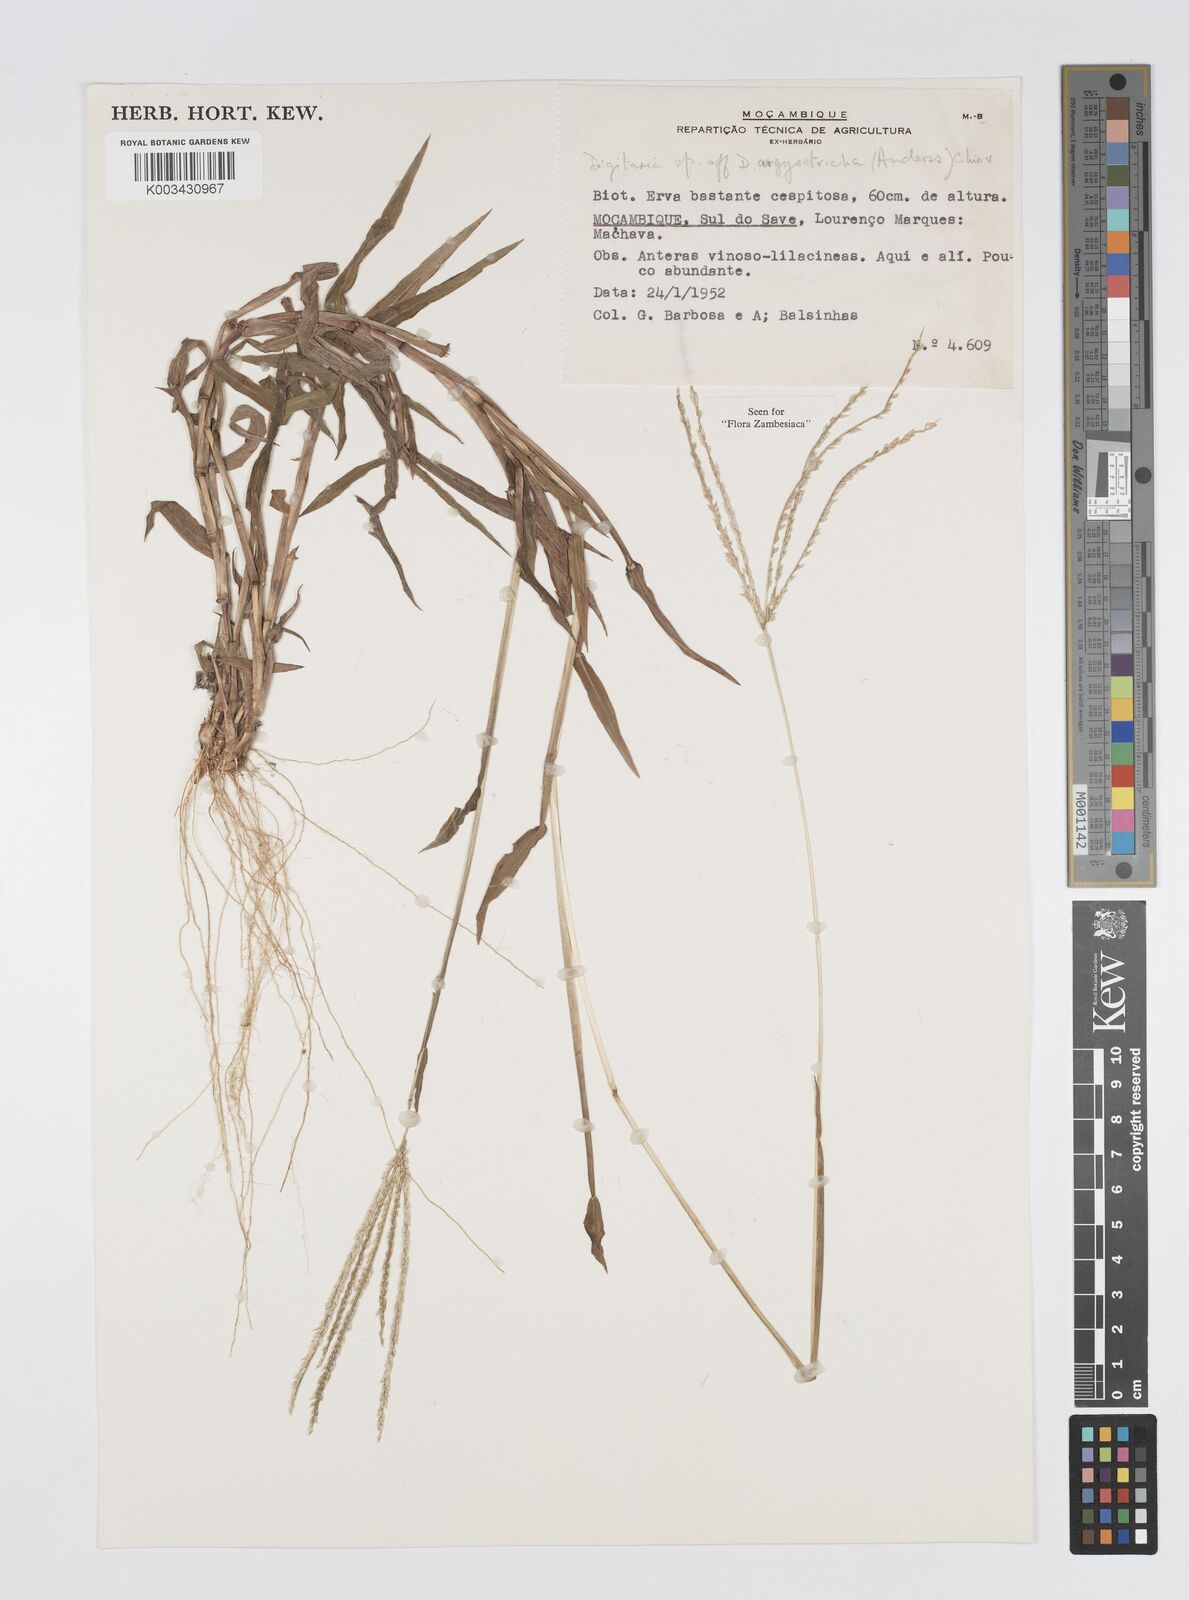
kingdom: Plantae
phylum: Tracheophyta
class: Liliopsida
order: Poales
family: Poaceae
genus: Digitaria
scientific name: Digitaria argyrotricha
